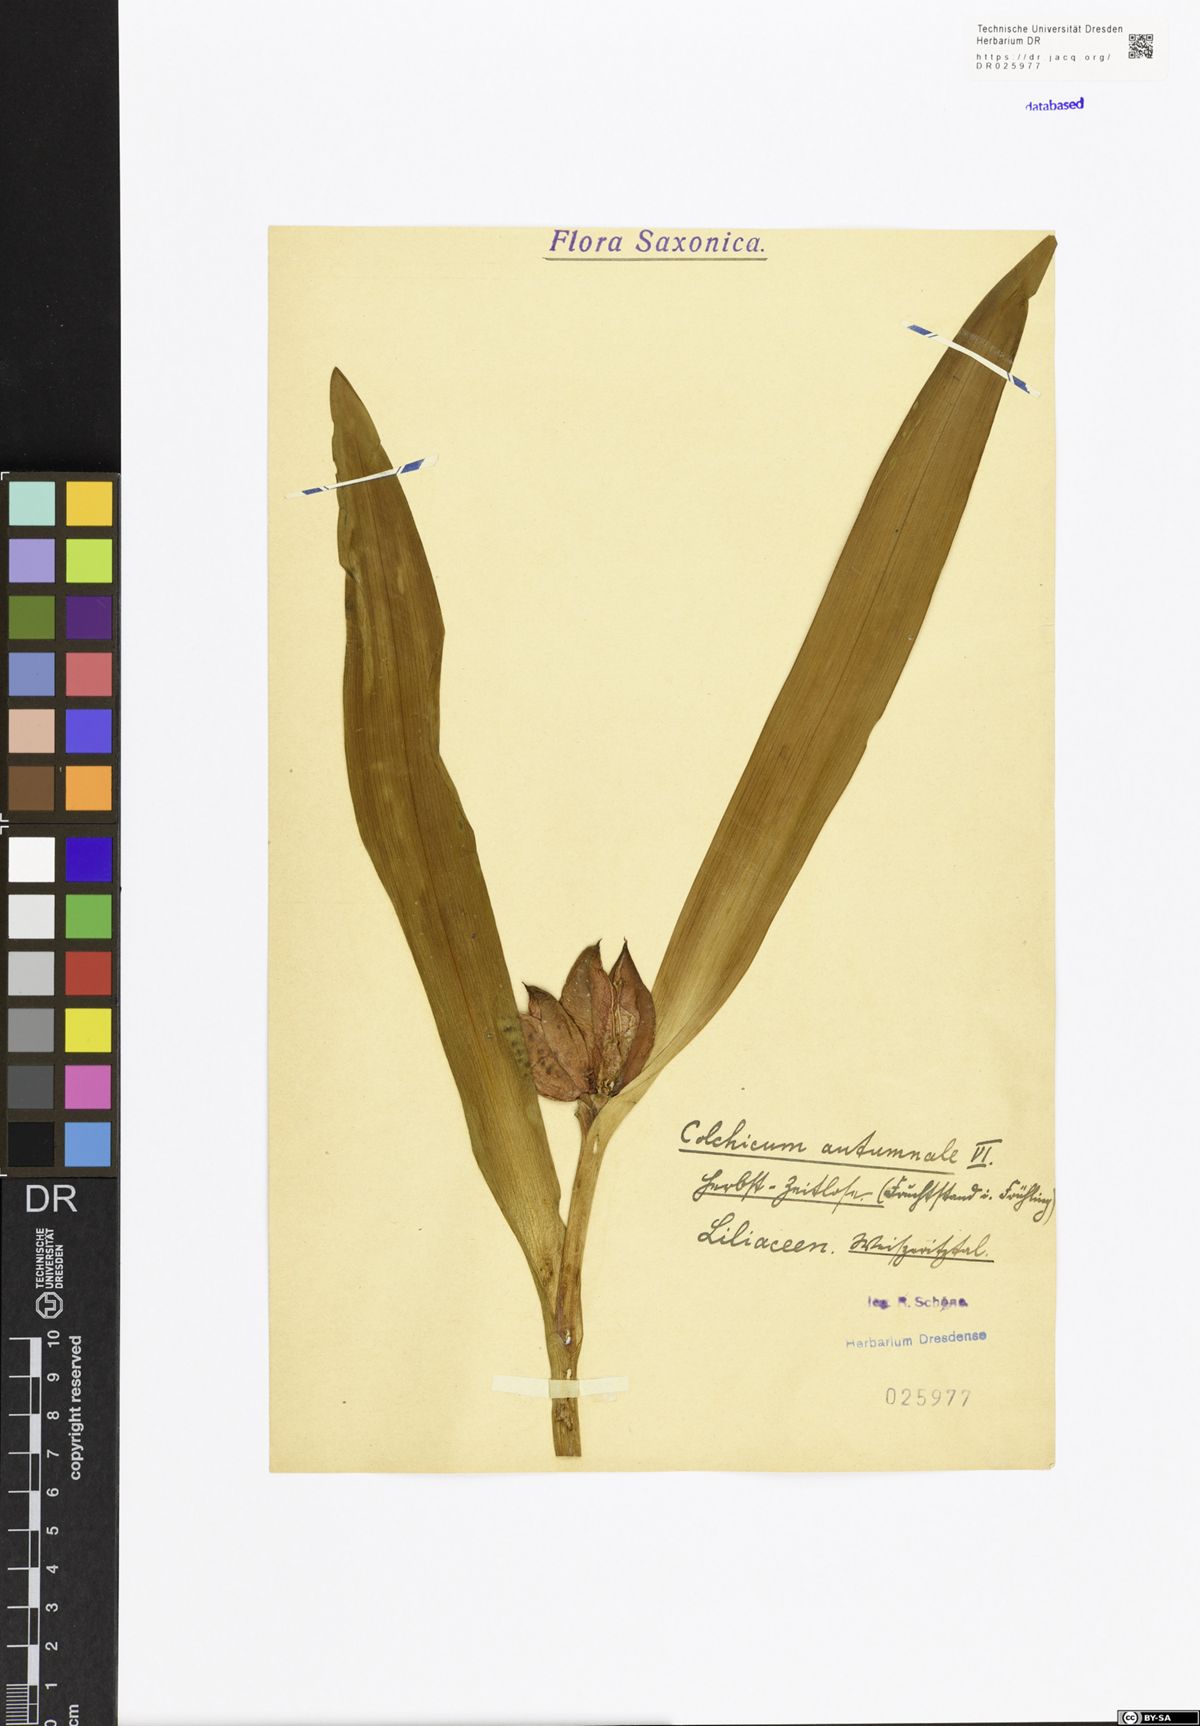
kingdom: Plantae
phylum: Tracheophyta
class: Liliopsida
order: Liliales
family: Colchicaceae
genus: Colchicum
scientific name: Colchicum autumnale
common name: Autumn crocus
